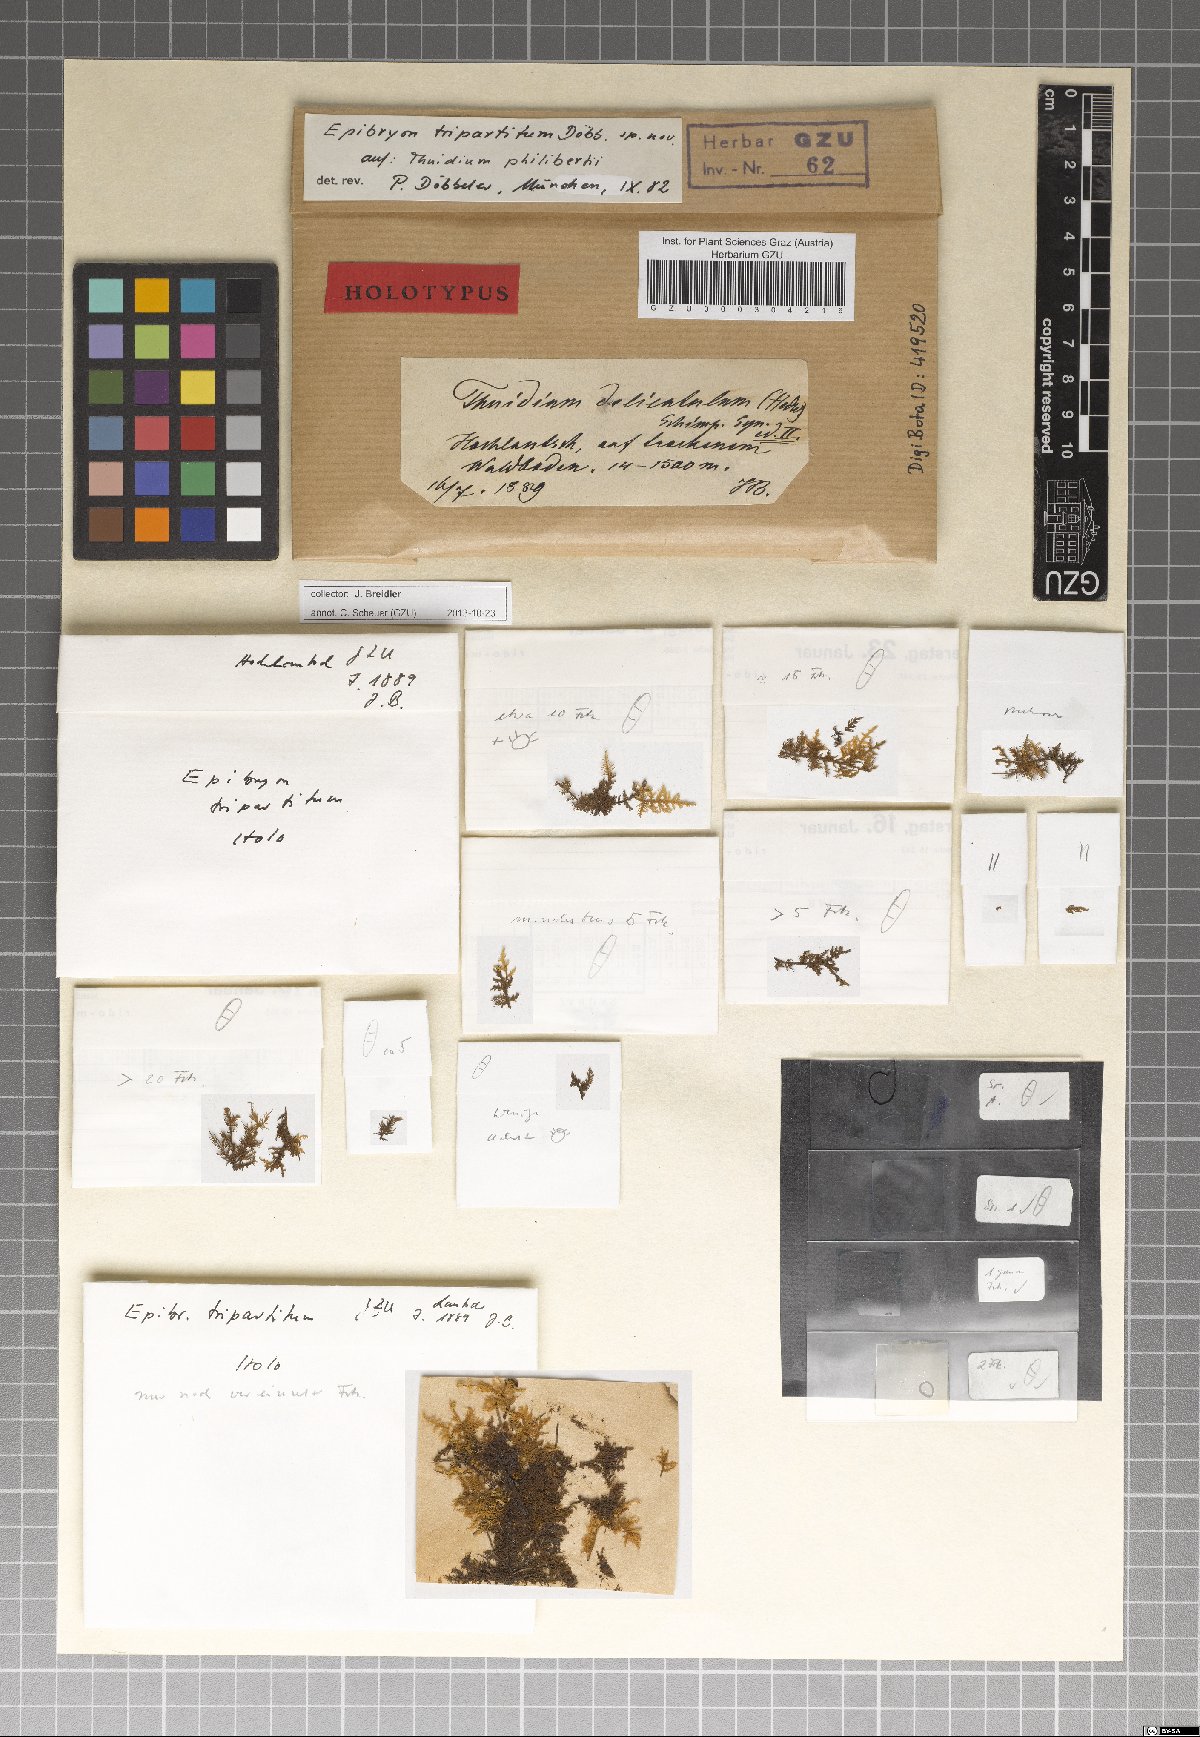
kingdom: Fungi
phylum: Ascomycota
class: Eurotiomycetes
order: Chaetothyriales
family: Epibryaceae
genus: Epibryon
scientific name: Epibryon tripartitum
